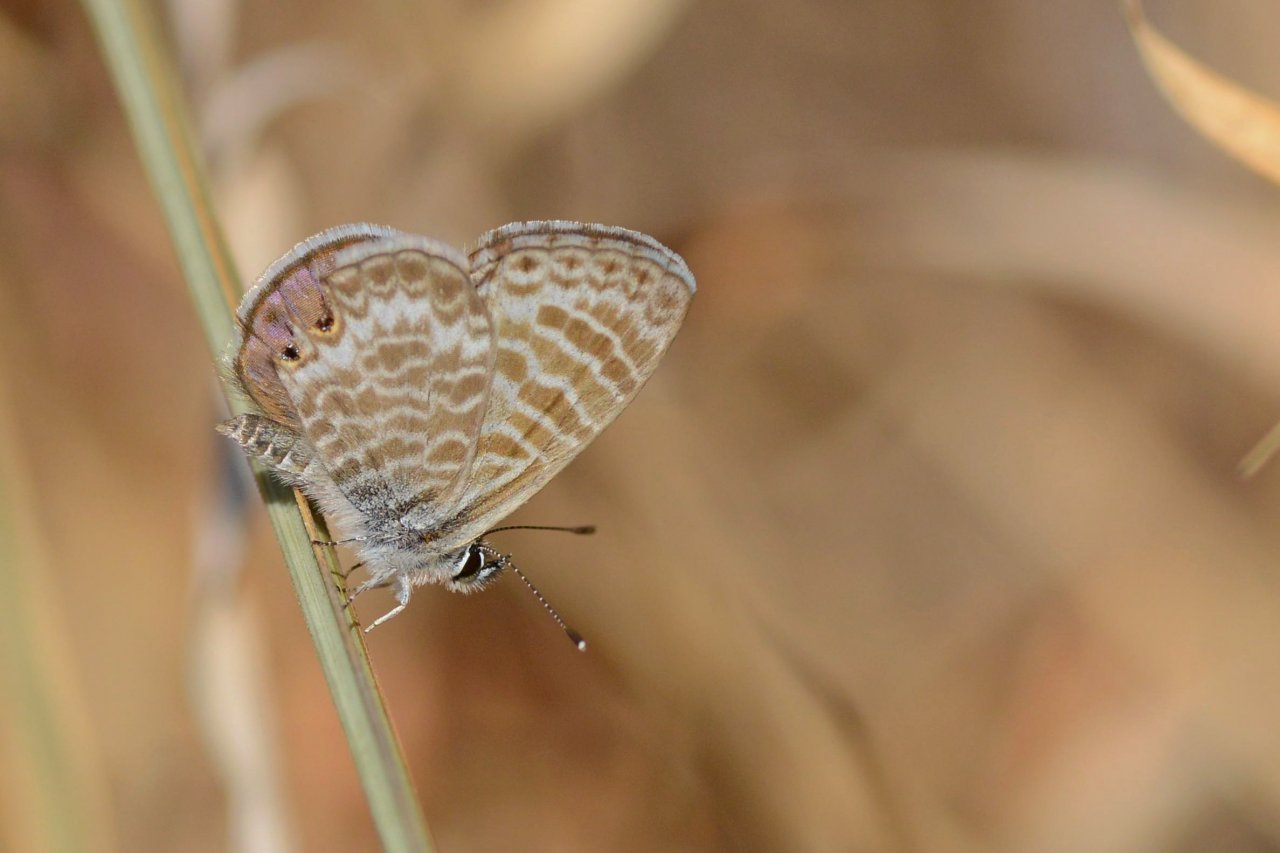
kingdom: Animalia
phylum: Arthropoda
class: Insecta
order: Lepidoptera
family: Lycaenidae
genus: Leptotes
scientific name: Leptotes marina
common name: Marine Blue
